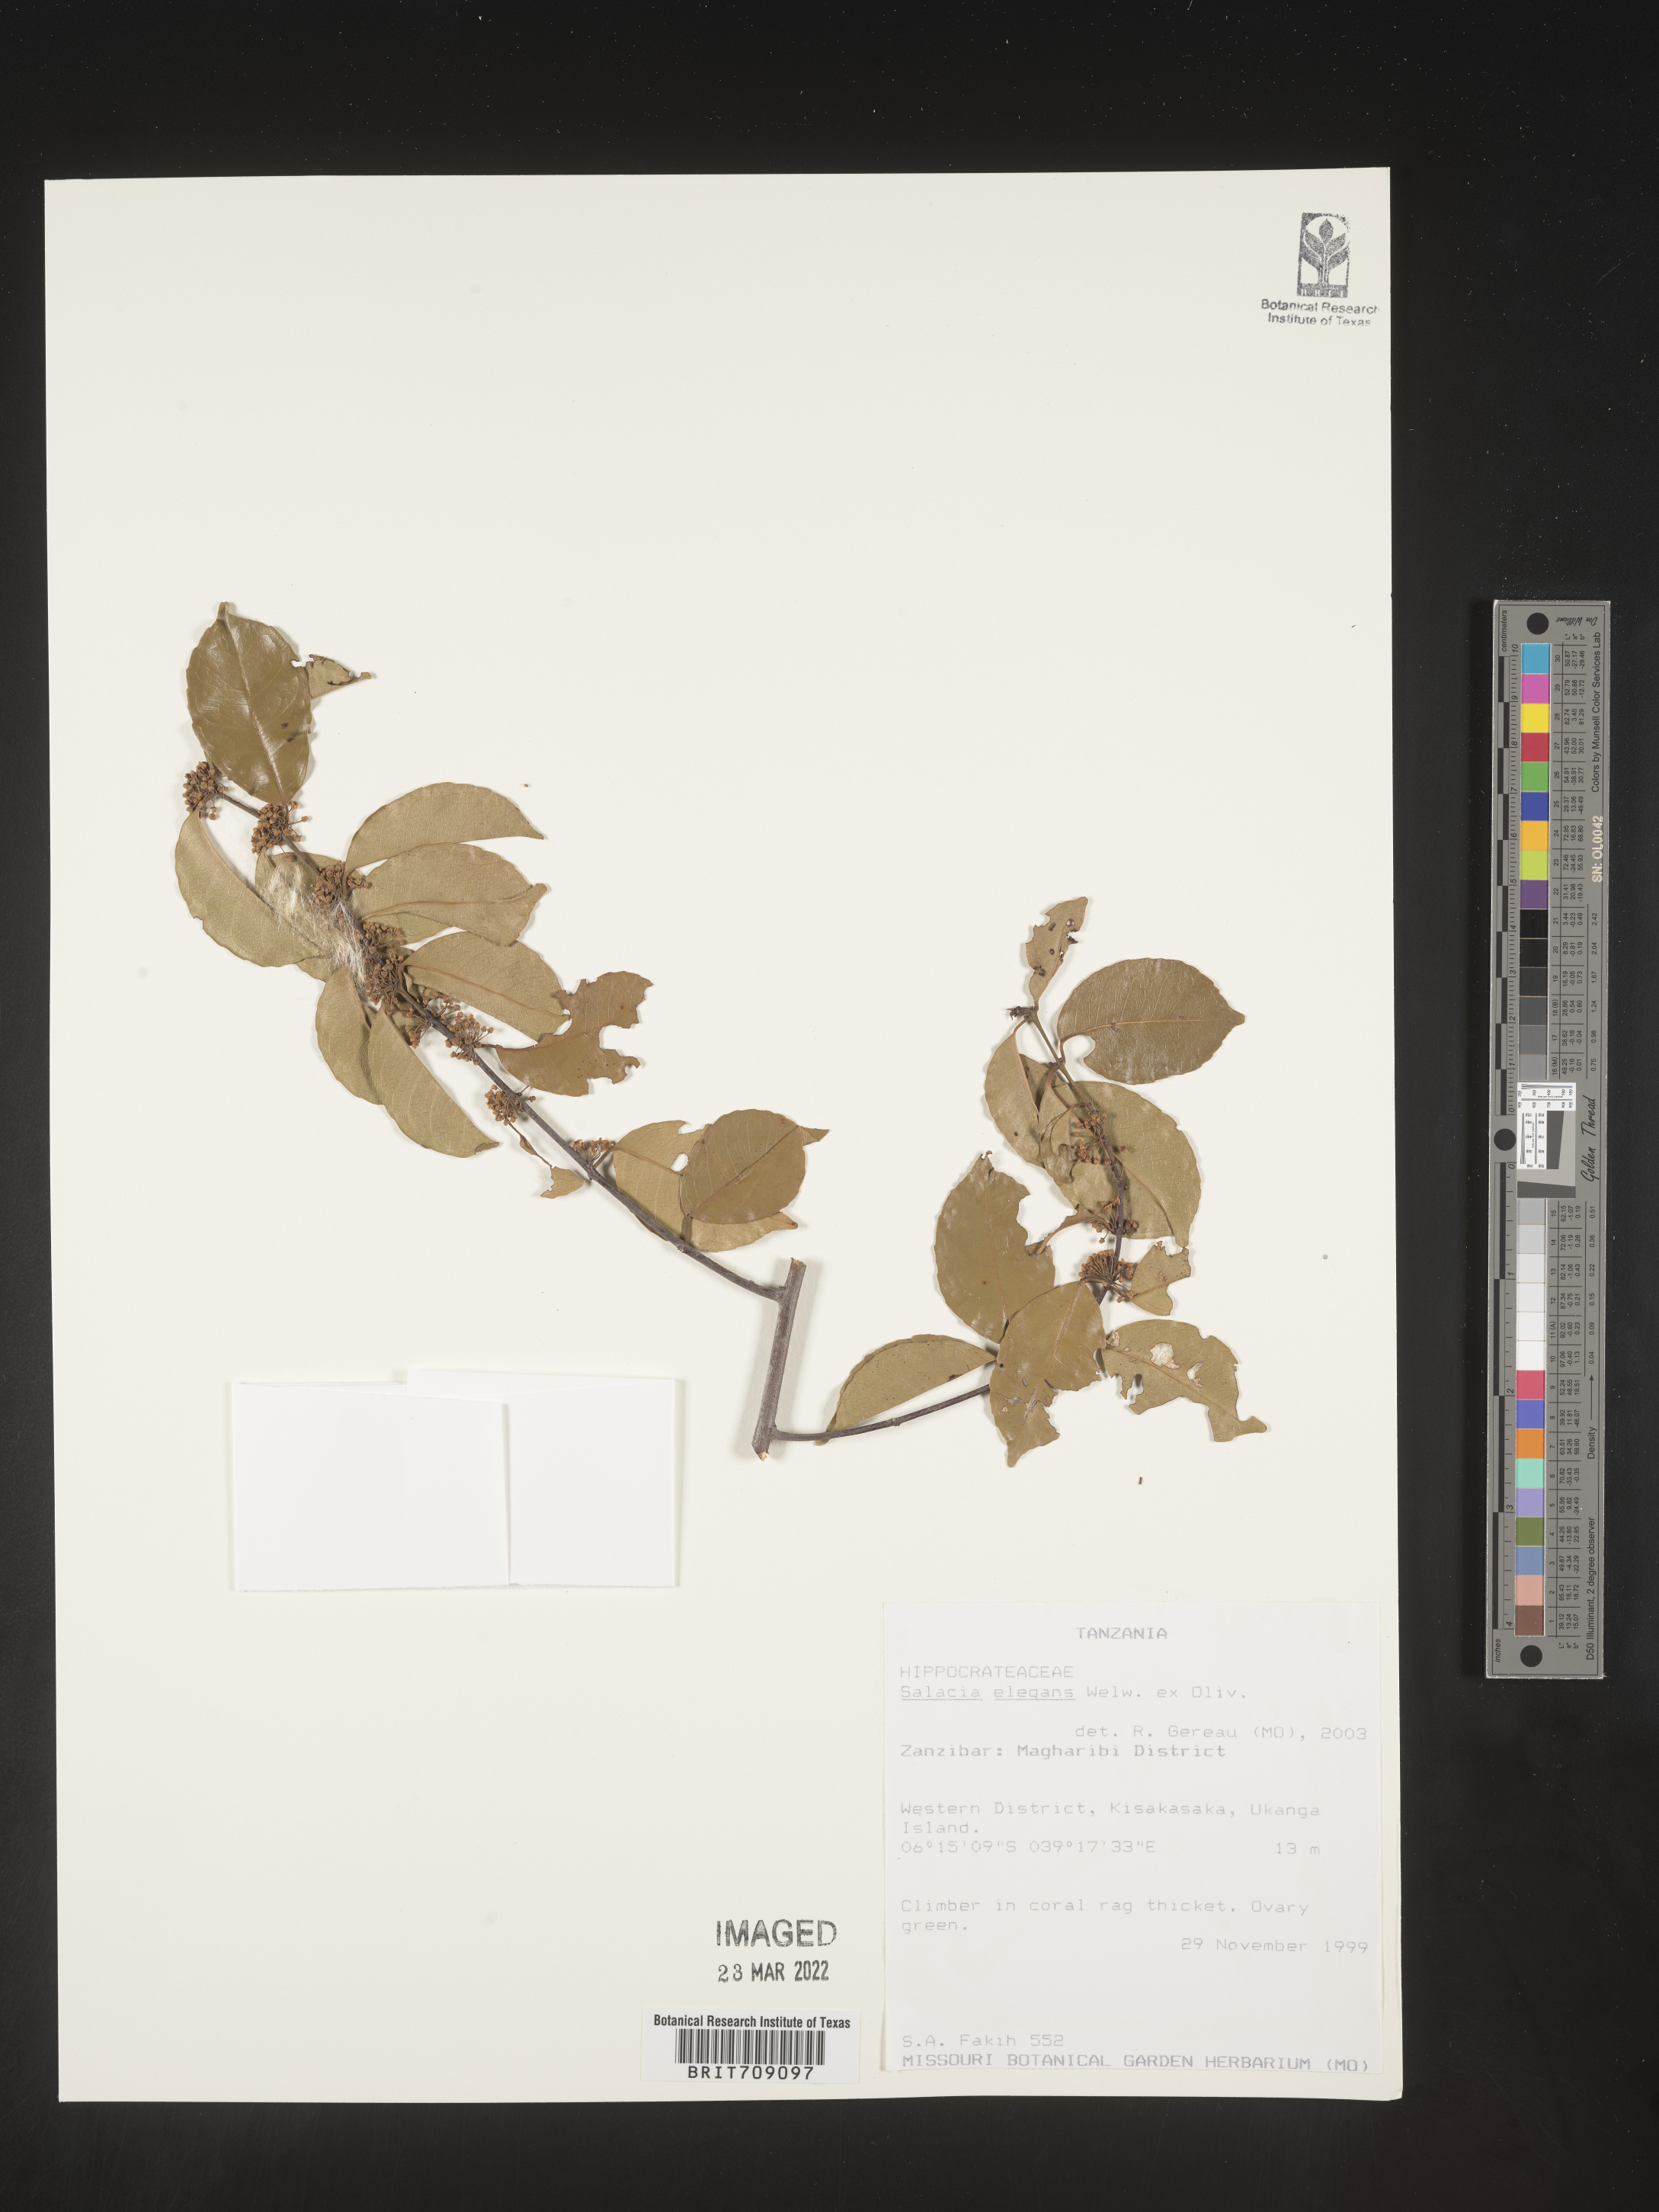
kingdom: Plantae
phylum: Tracheophyta
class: Magnoliopsida
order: Celastrales
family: Celastraceae
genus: Salacia
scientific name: Salacia
